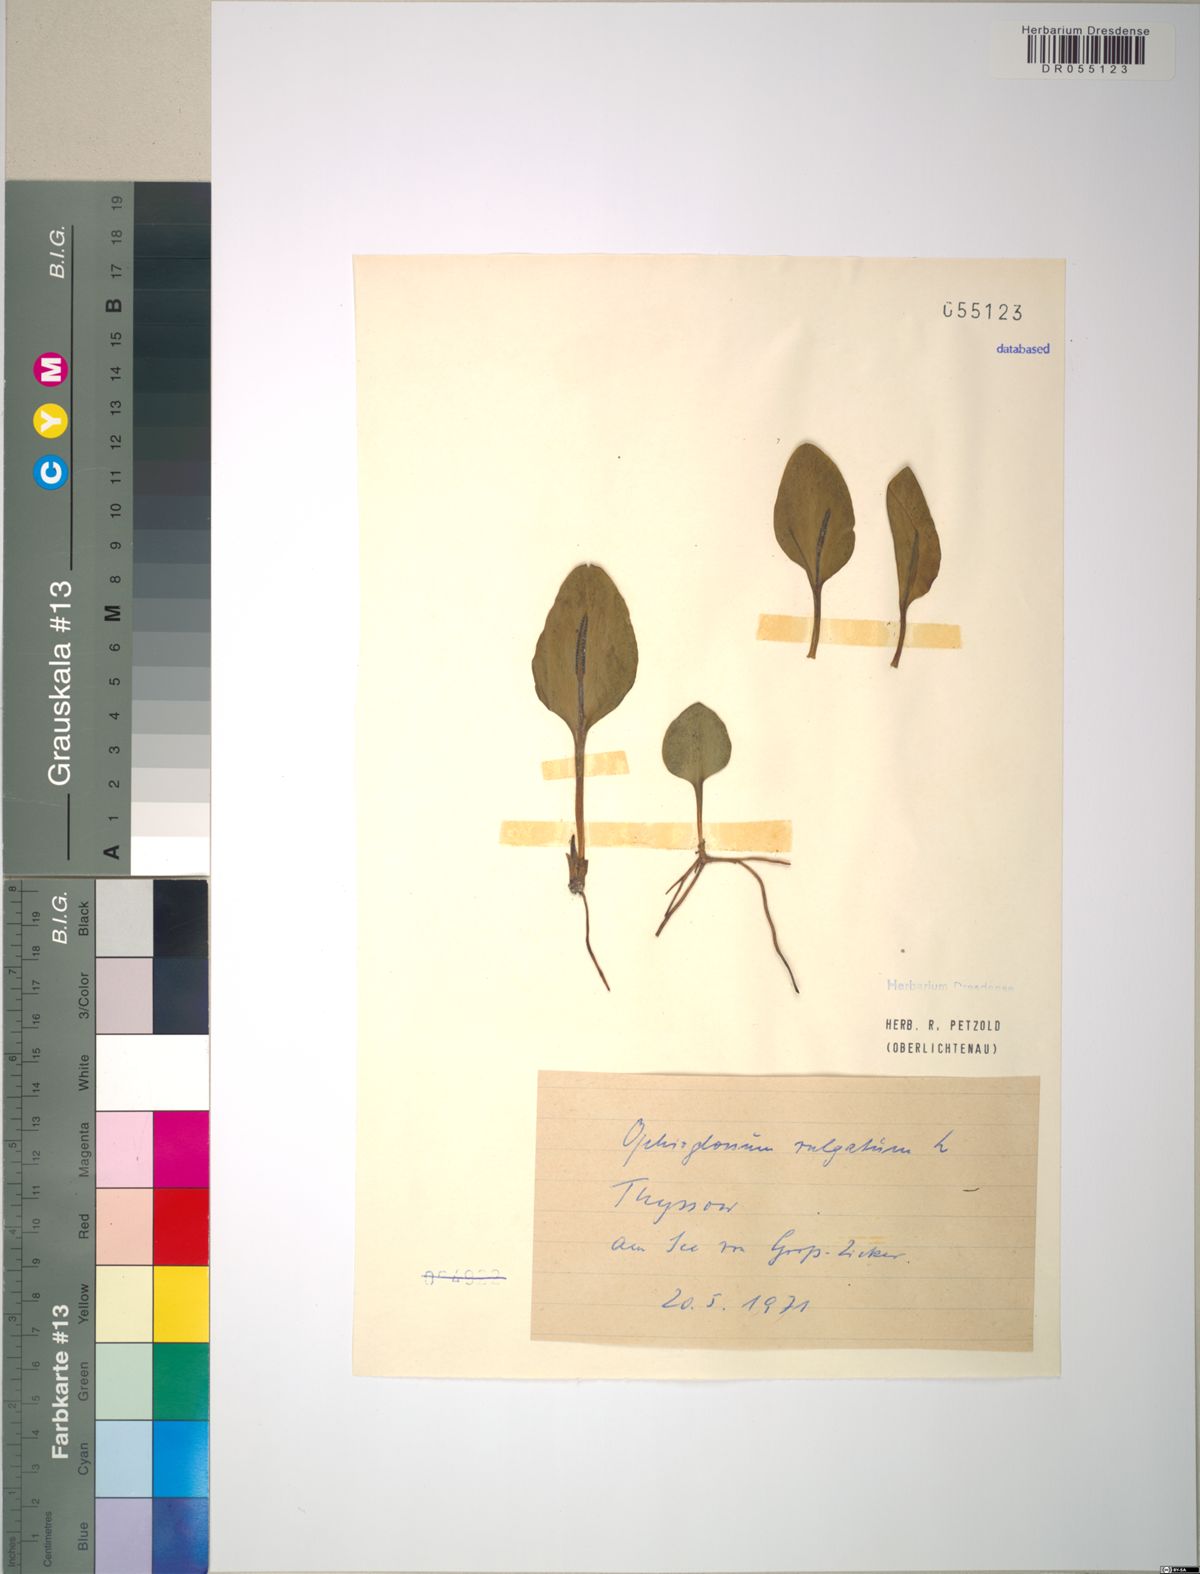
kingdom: Plantae
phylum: Tracheophyta
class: Polypodiopsida
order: Ophioglossales
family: Ophioglossaceae
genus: Ophioglossum
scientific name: Ophioglossum vulgatum
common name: Adder's-tongue
